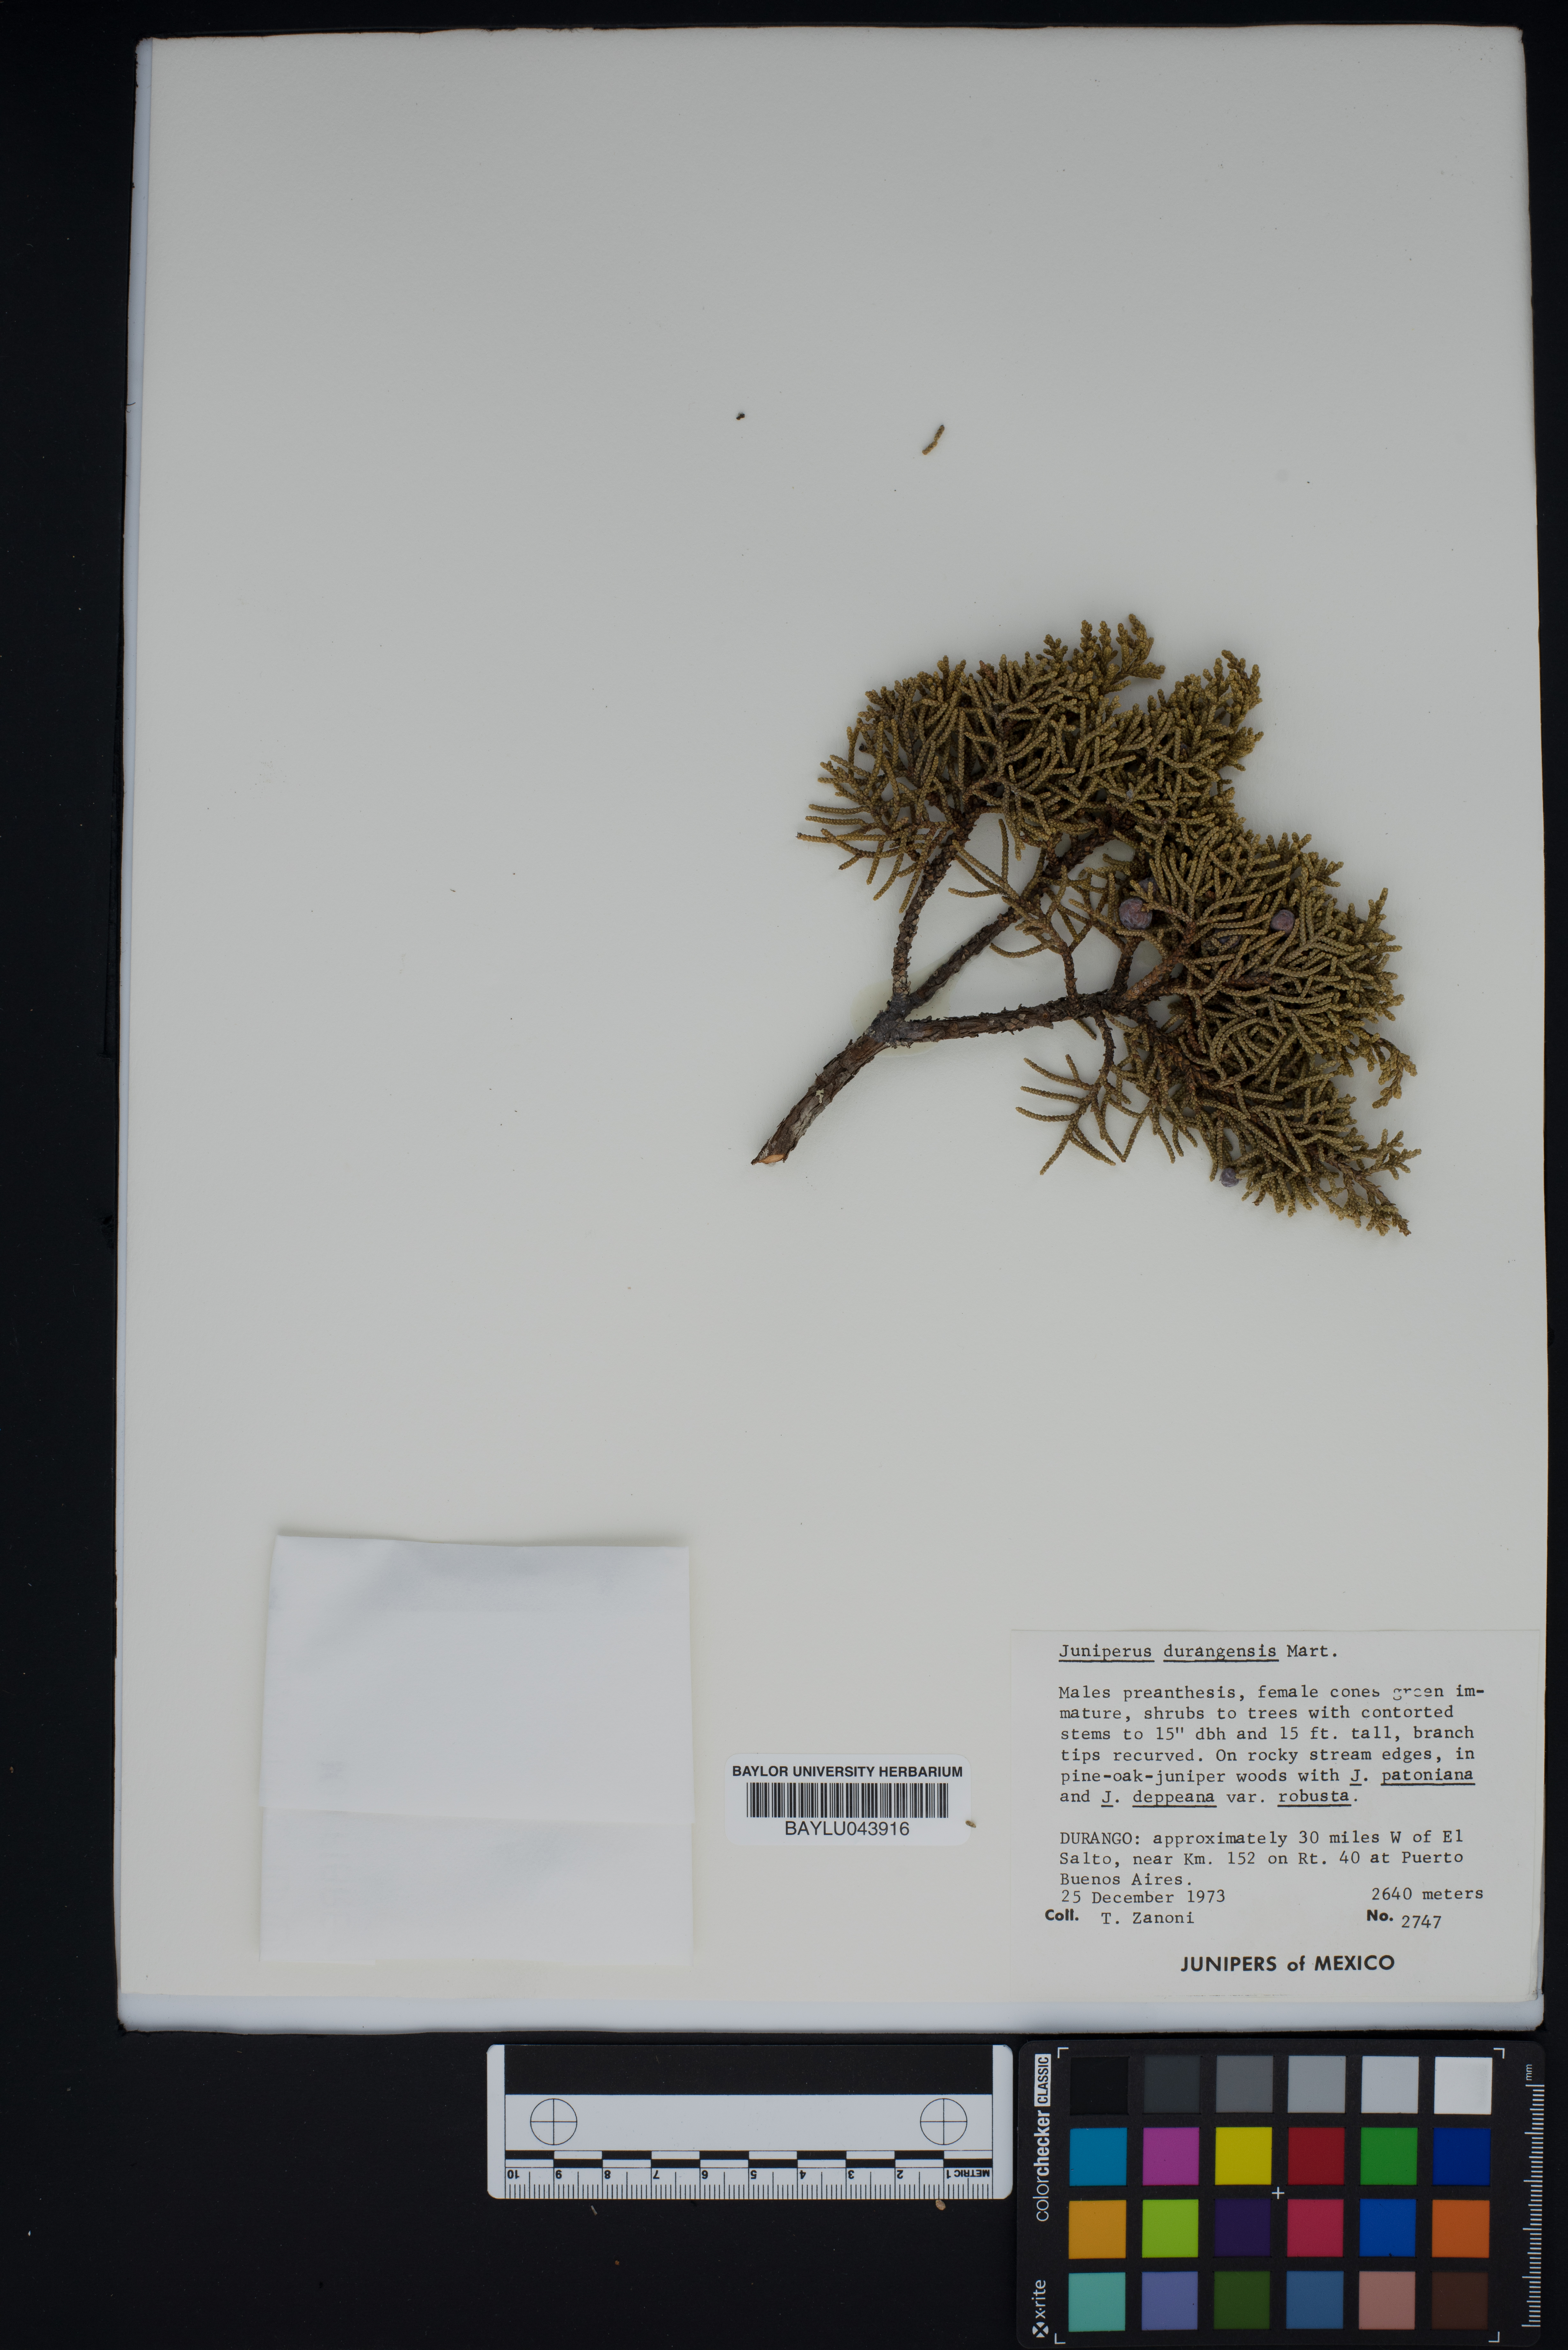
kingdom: Plantae
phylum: Tracheophyta
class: Pinopsida
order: Pinales
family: Cupressaceae
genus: Juniperus
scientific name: Juniperus durangensis
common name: Durango juniper
